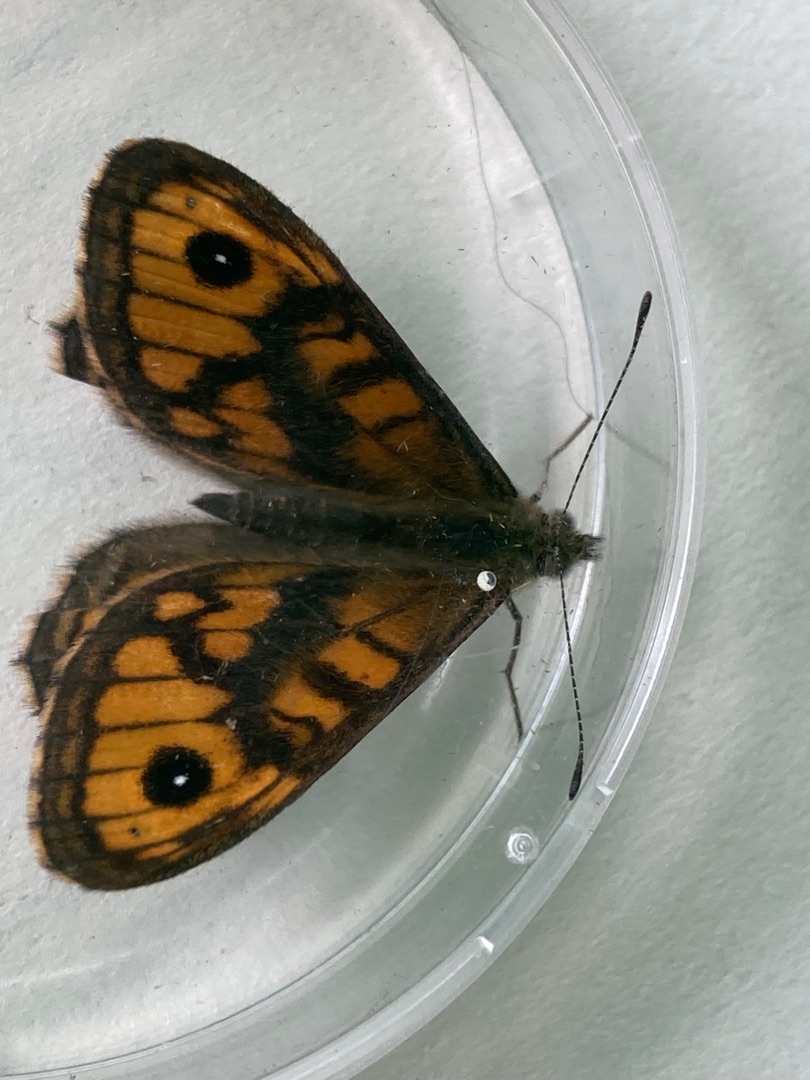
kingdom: Animalia
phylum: Arthropoda
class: Insecta
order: Lepidoptera
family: Nymphalidae
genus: Pararge
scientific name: Pararge Lasiommata megera
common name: Vejrandøje
